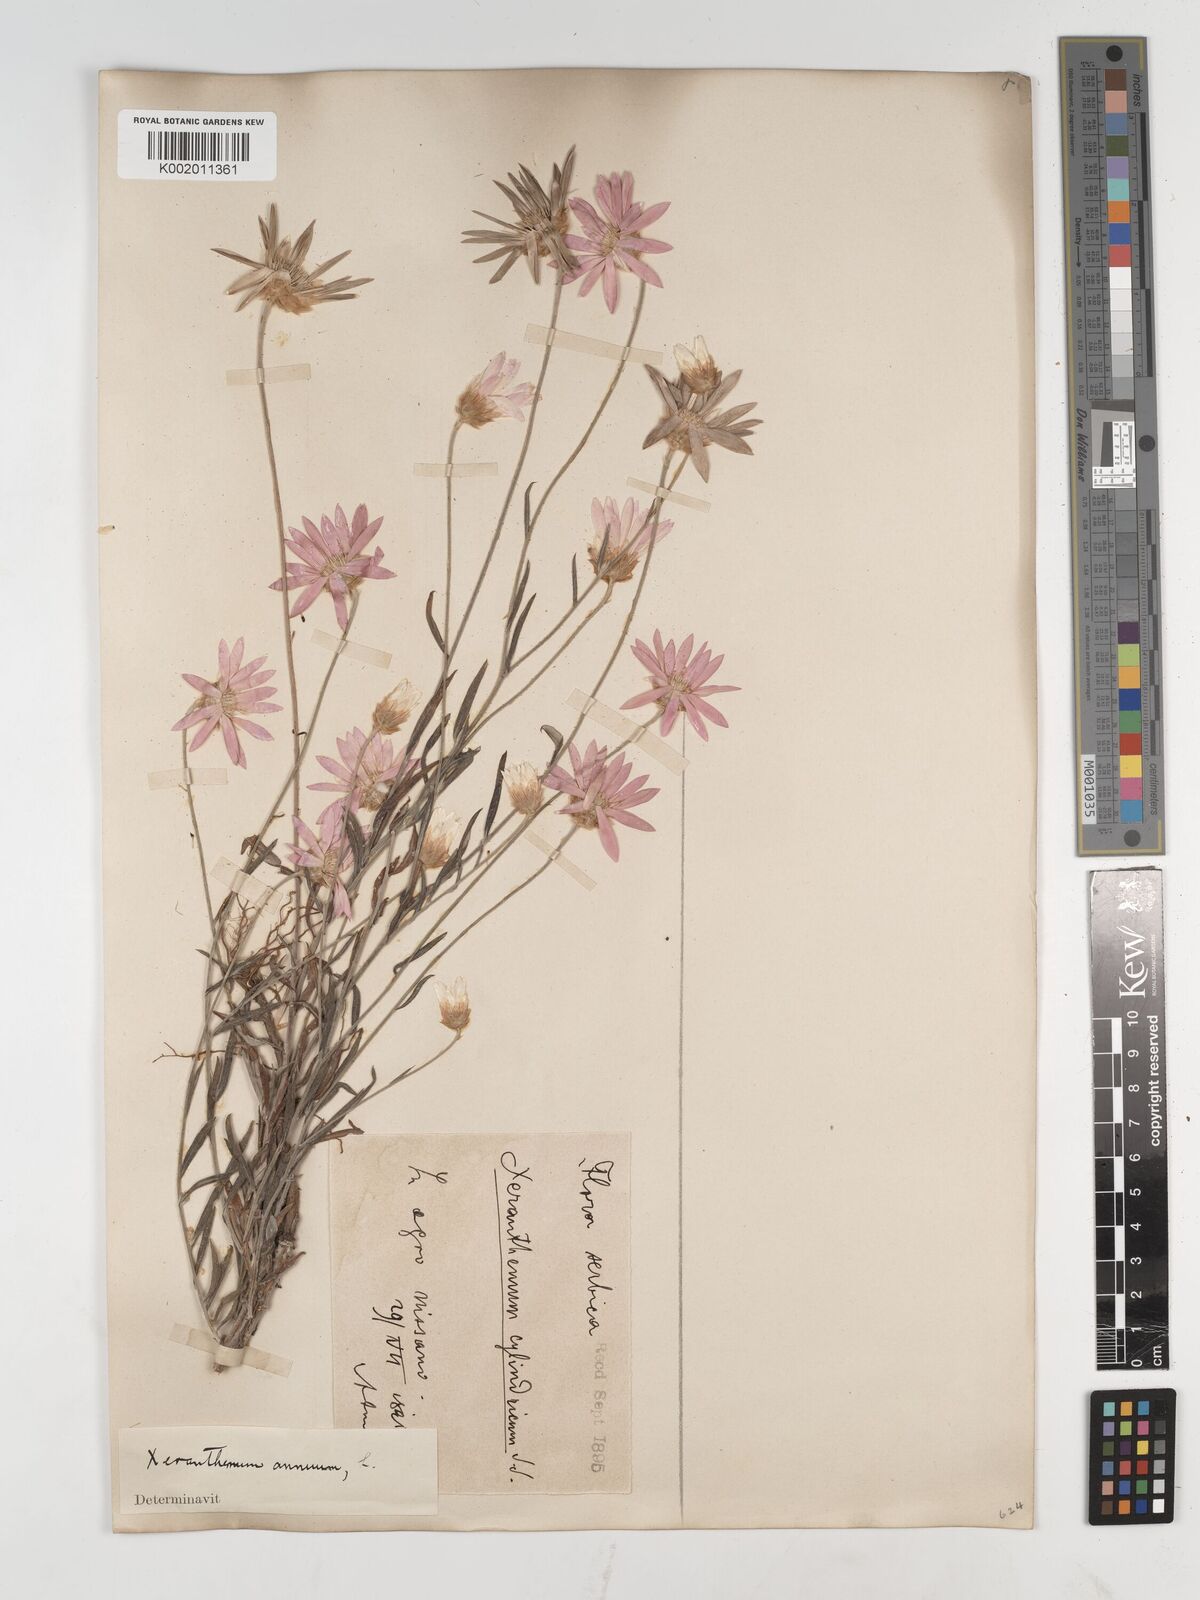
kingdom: Plantae
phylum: Tracheophyta
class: Magnoliopsida
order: Asterales
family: Asteraceae
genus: Xeranthemum
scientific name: Xeranthemum annuum
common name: Immortelle
